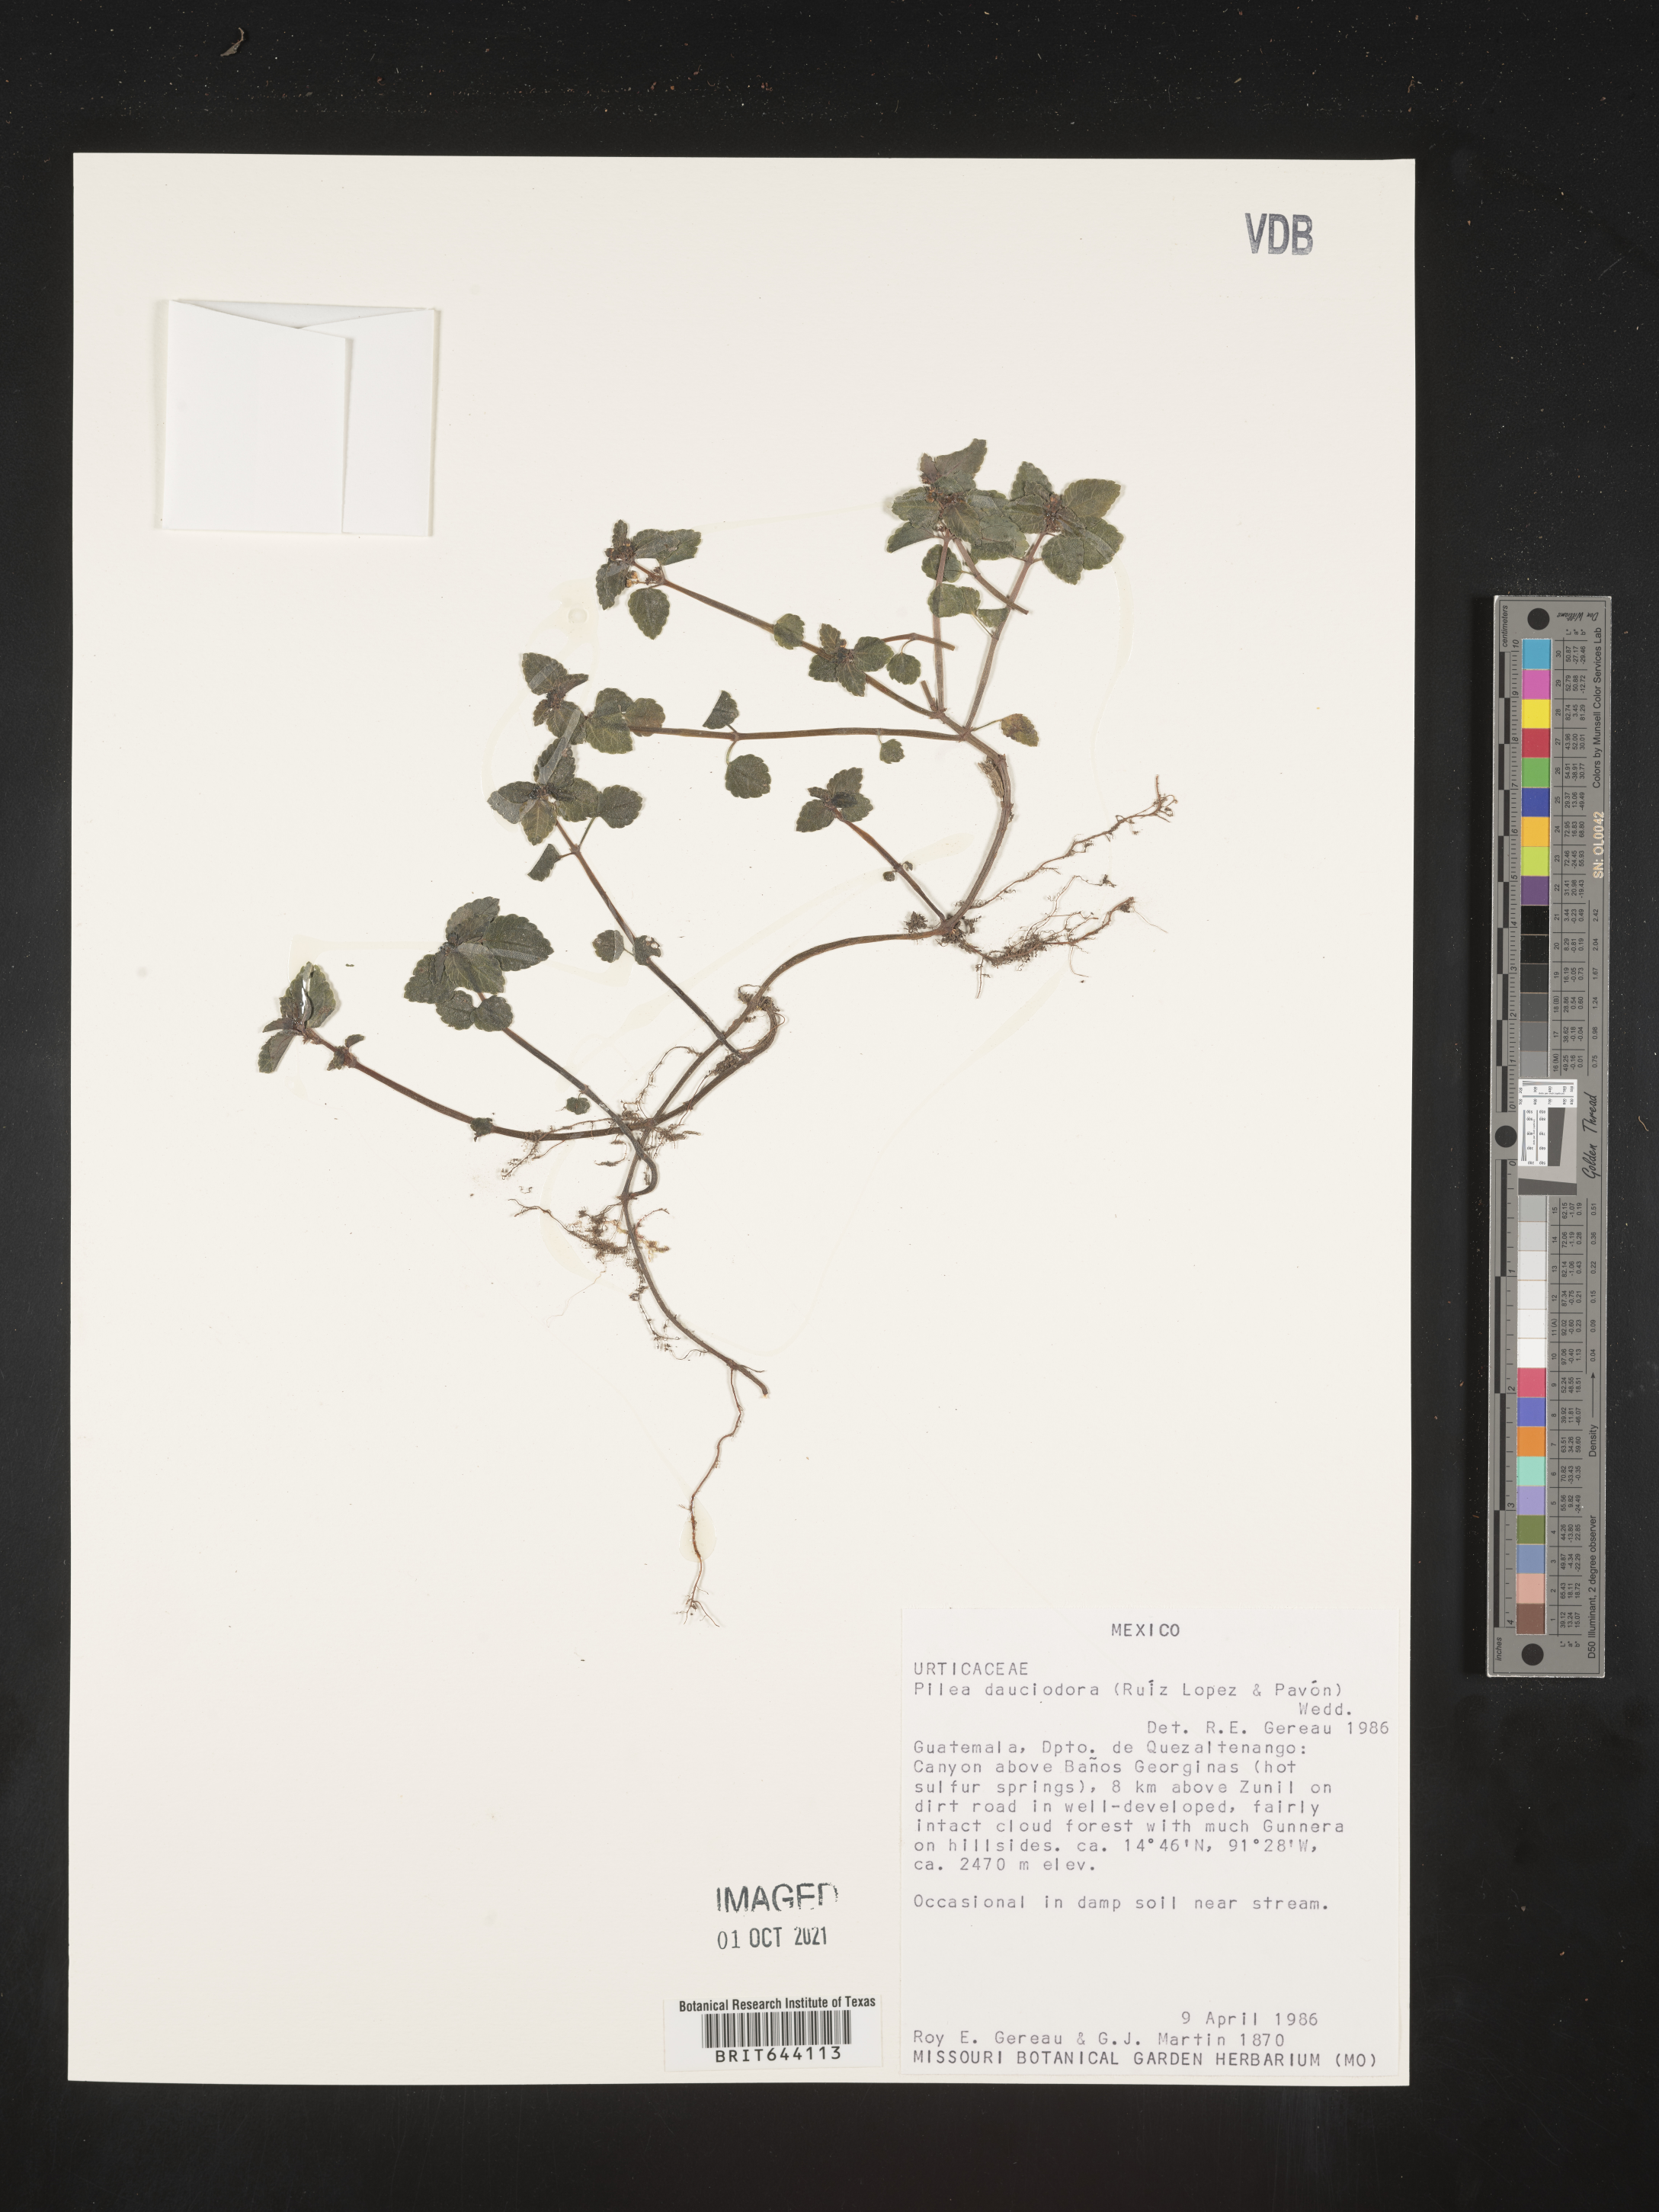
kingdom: Plantae
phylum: Tracheophyta
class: Magnoliopsida
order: Rosales
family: Urticaceae
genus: Pilea
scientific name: Pilea
